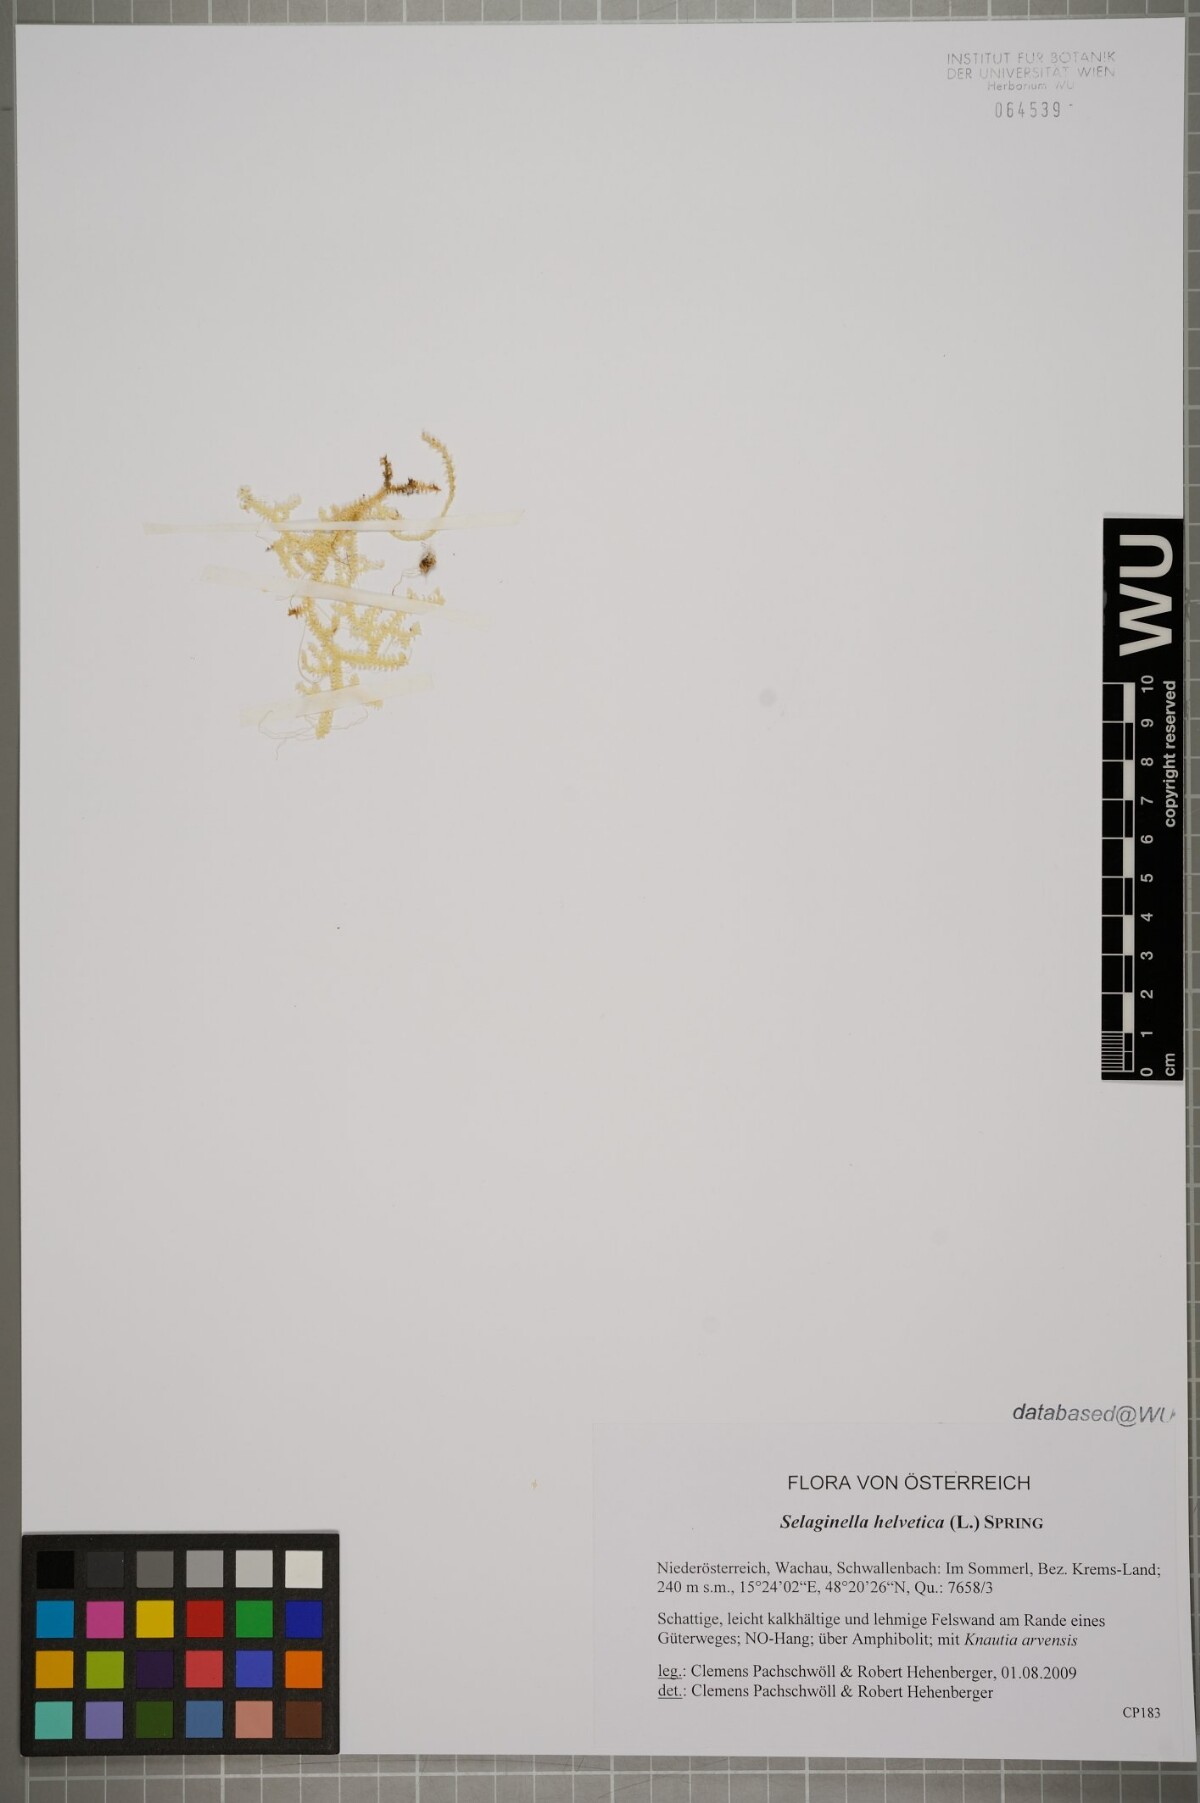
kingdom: Plantae
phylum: Tracheophyta
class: Lycopodiopsida
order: Selaginellales
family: Selaginellaceae
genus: Selaginella
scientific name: Selaginella helvetica
